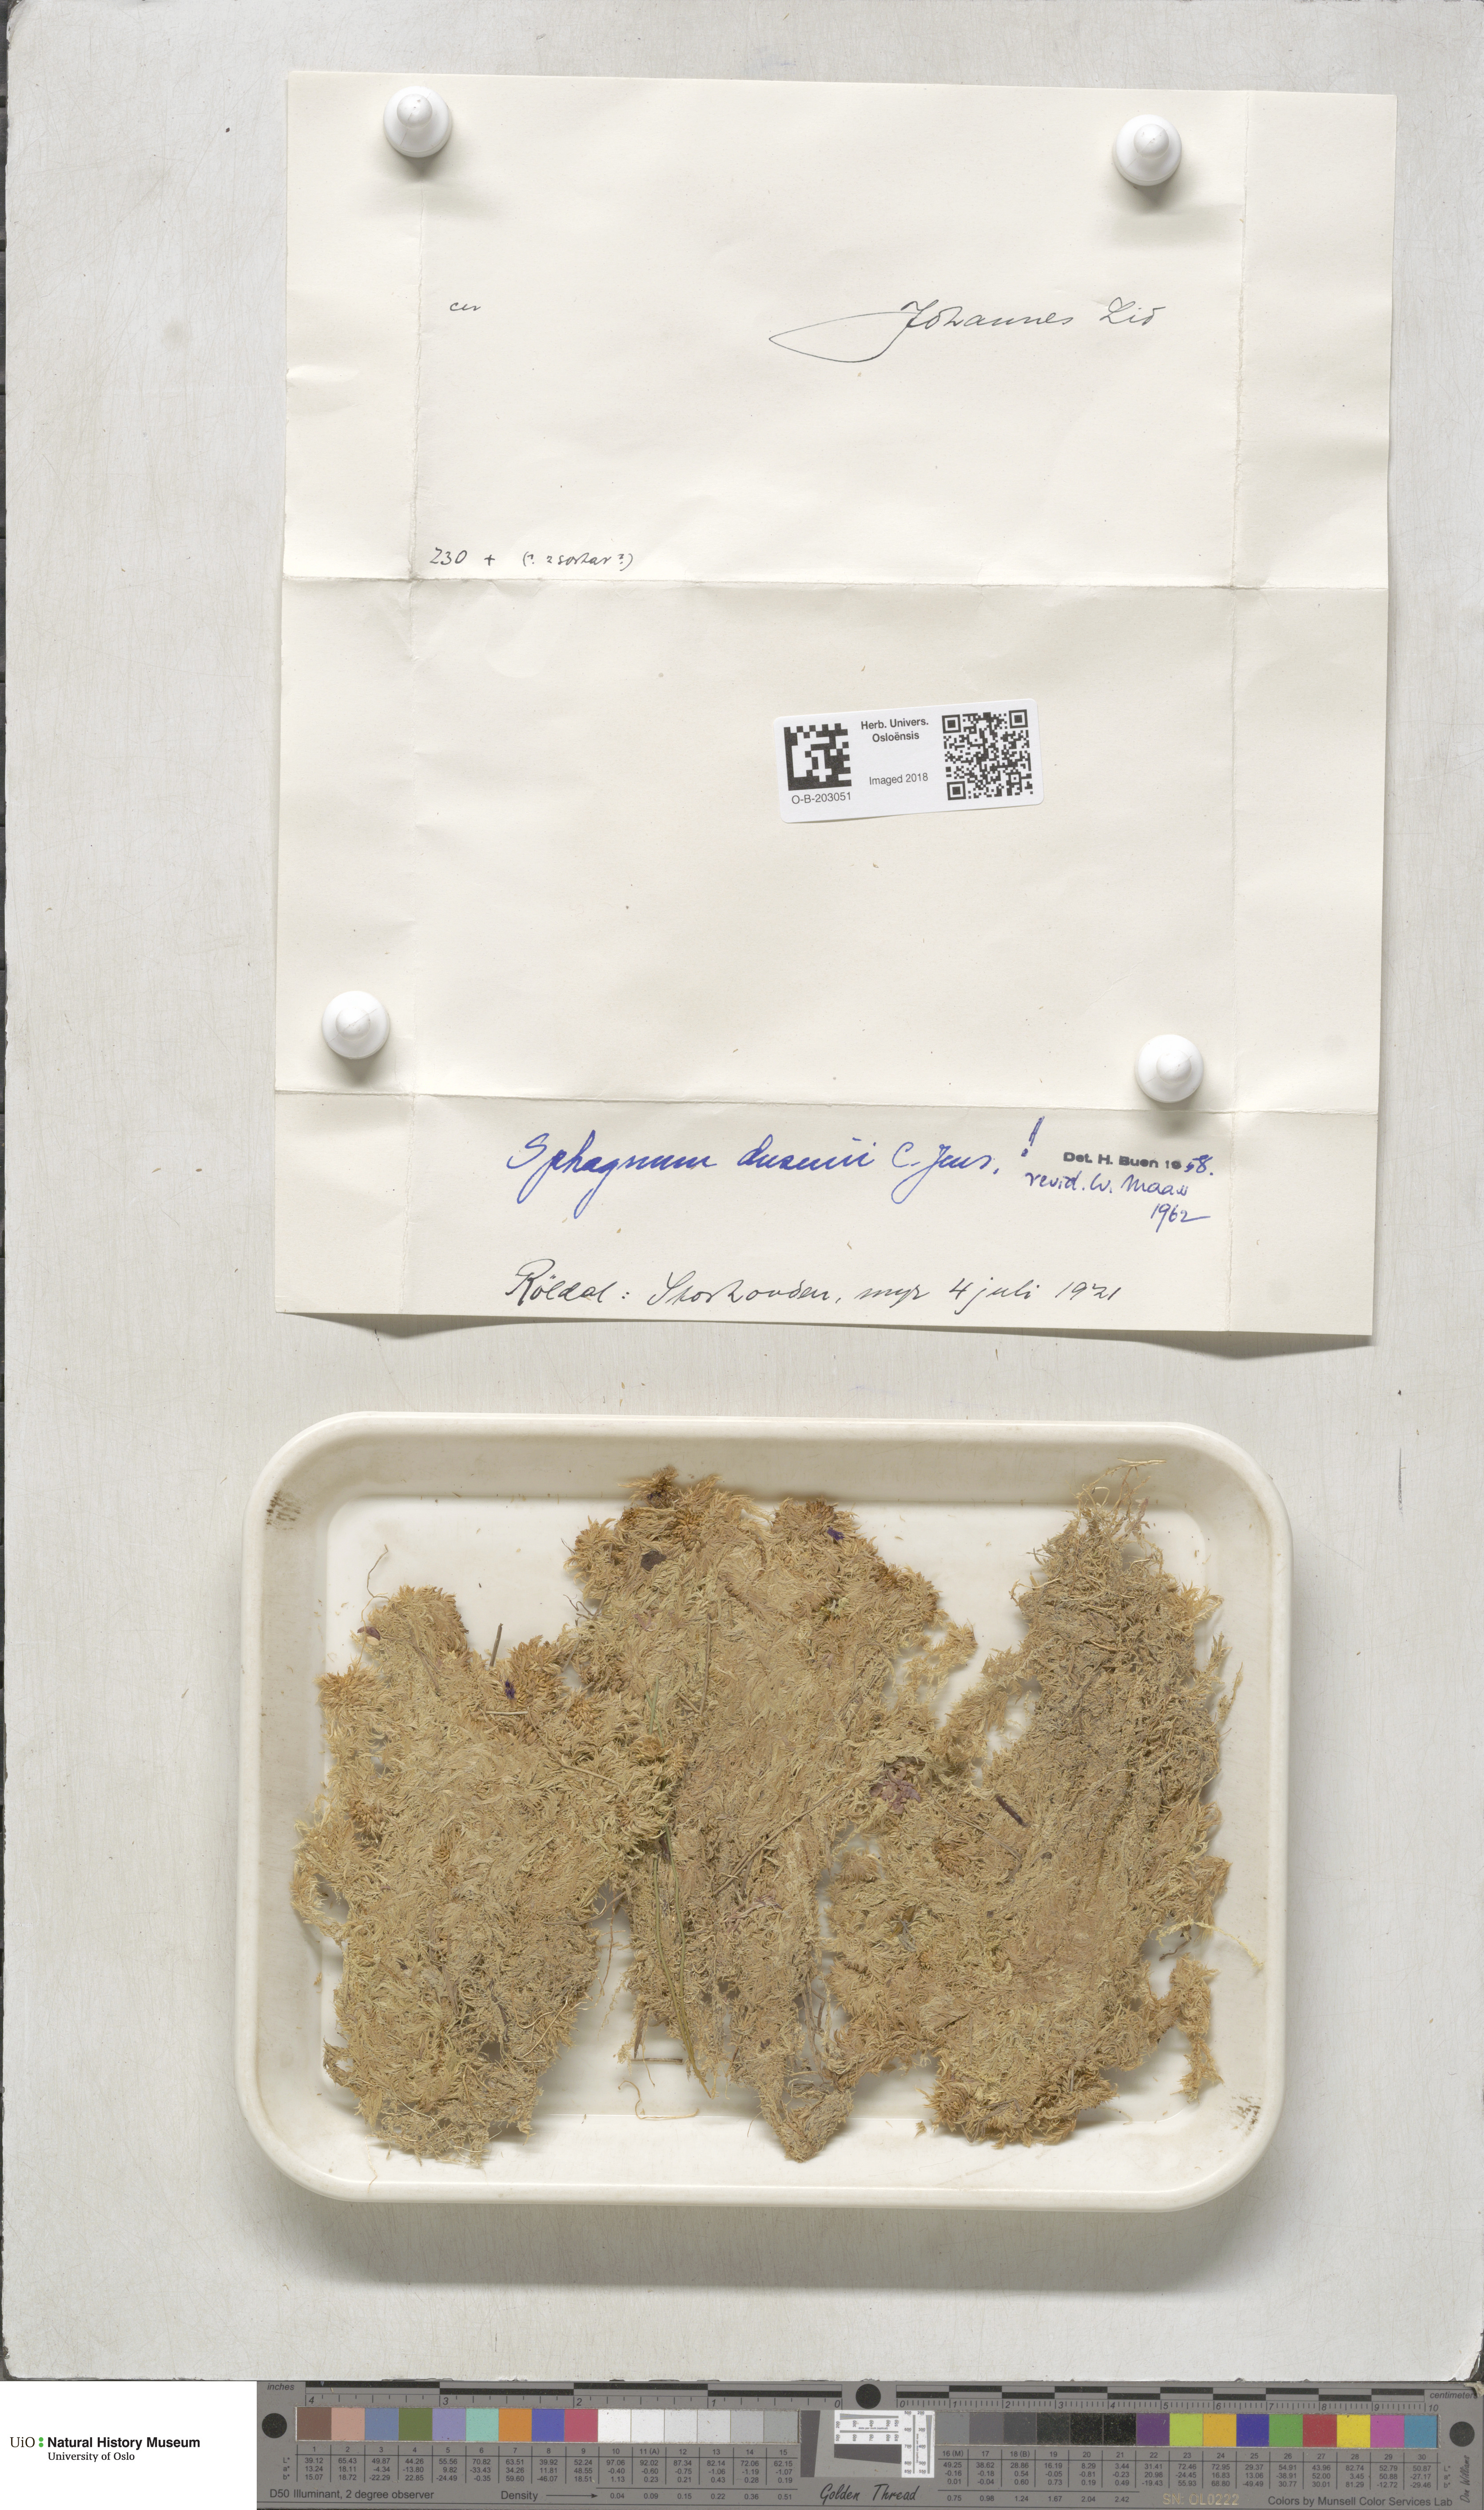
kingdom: Plantae
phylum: Bryophyta
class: Sphagnopsida
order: Sphagnales
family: Sphagnaceae
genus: Sphagnum
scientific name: Sphagnum majus
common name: Olive bog-moss
